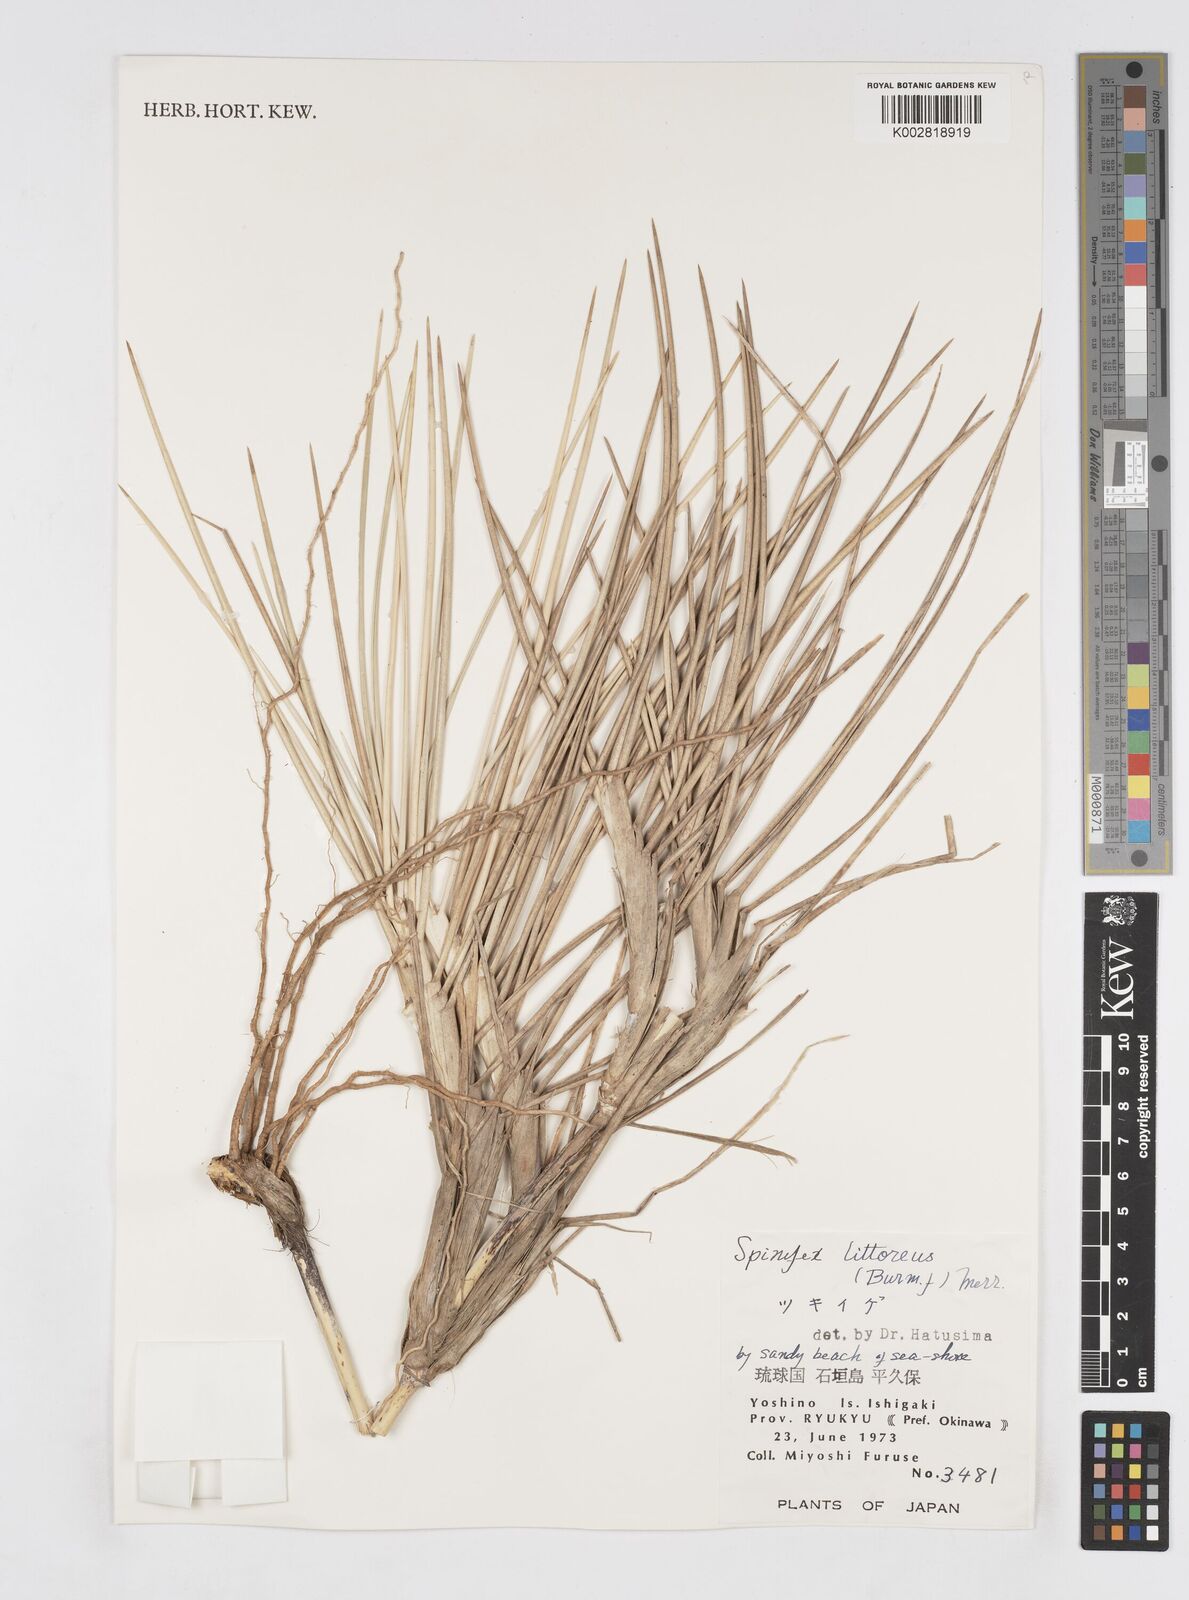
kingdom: Plantae
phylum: Tracheophyta
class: Liliopsida
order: Poales
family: Poaceae
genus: Spinifex
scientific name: Spinifex littoreus
